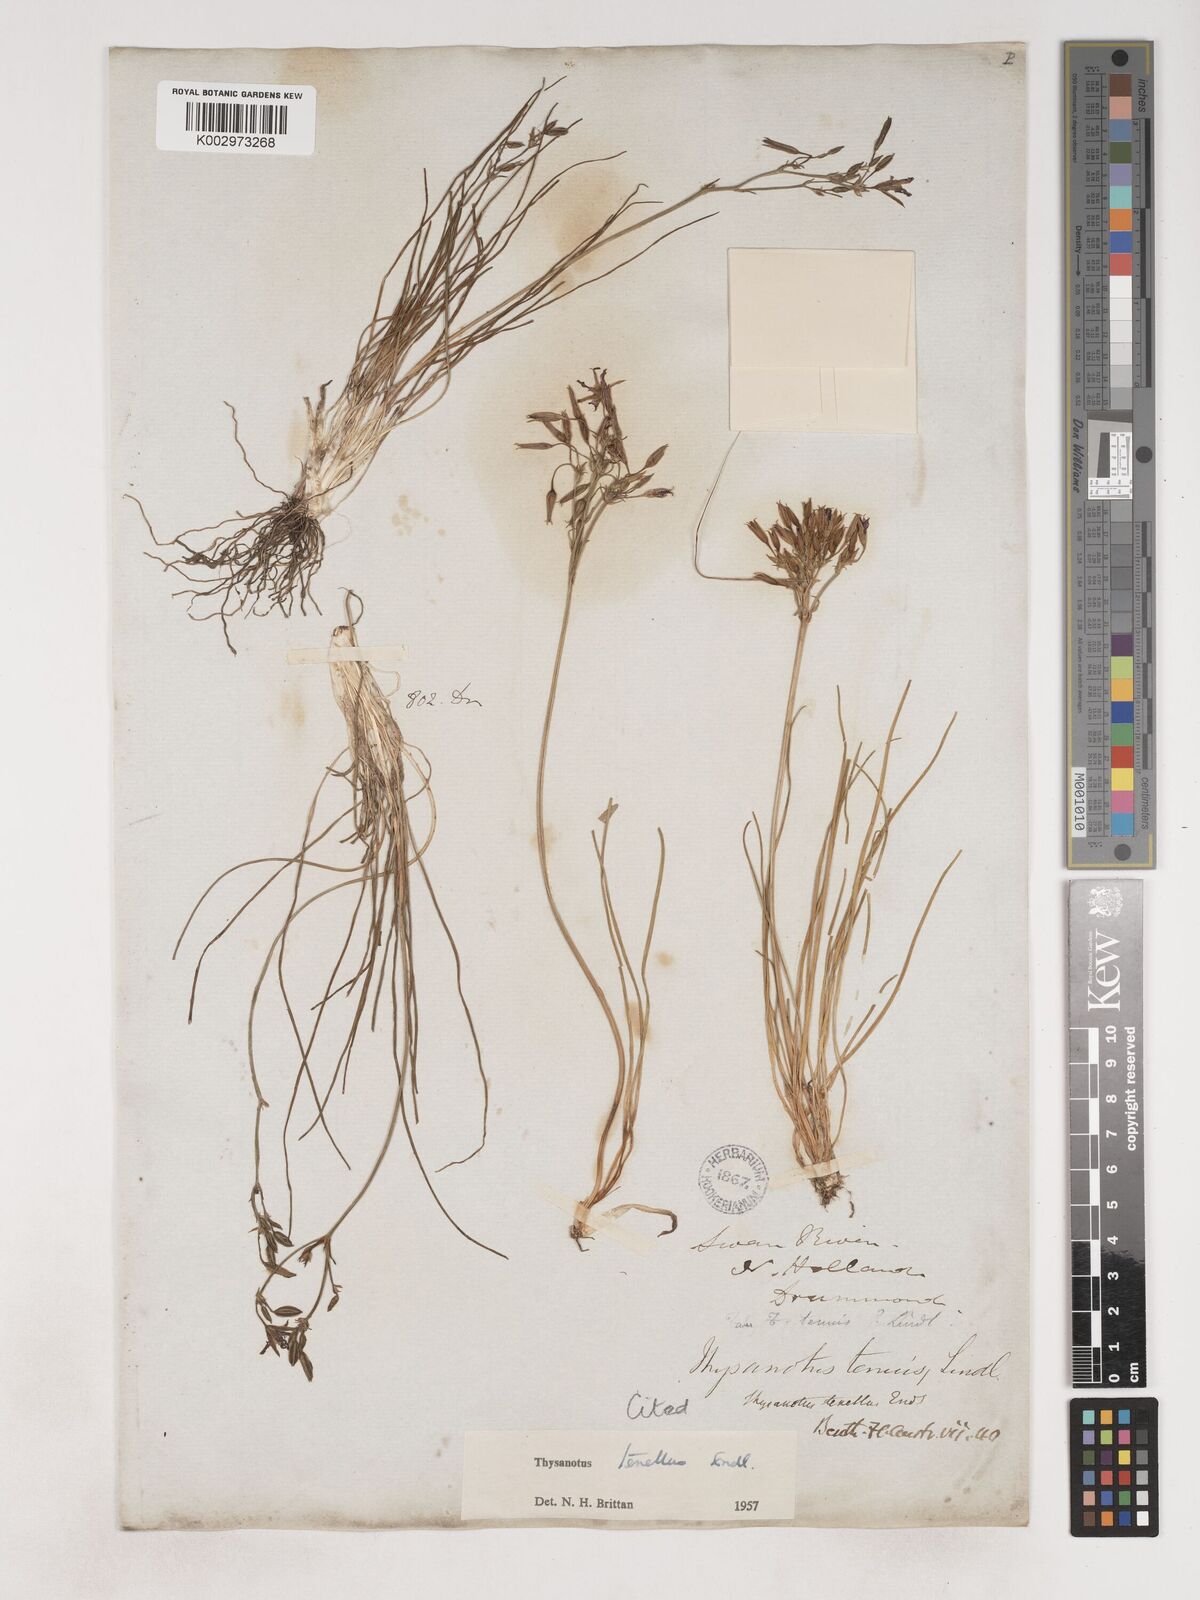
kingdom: Plantae
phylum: Tracheophyta
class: Liliopsida
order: Asparagales
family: Asparagaceae
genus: Thysanotus
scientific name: Thysanotus tenellus
